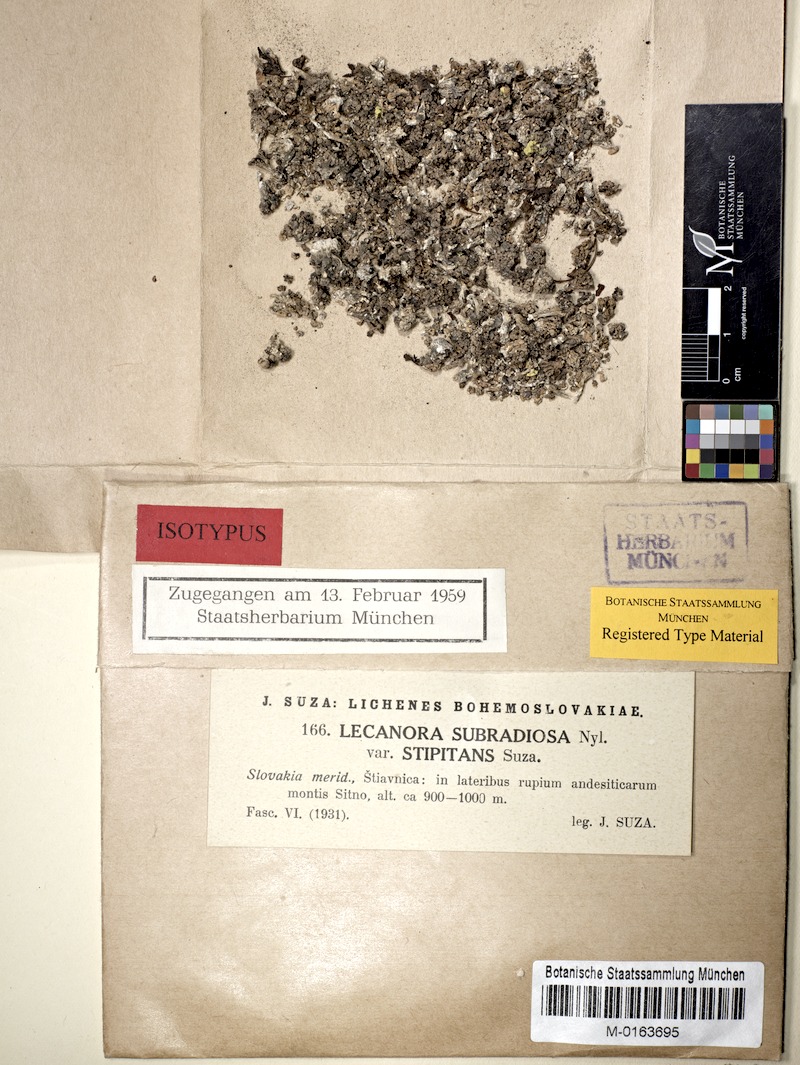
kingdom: Fungi
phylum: Ascomycota
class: Lecanoromycetes
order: Lecanorales
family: Lecanoraceae
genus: Glaucomaria
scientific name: Glaucomaria swartzii
